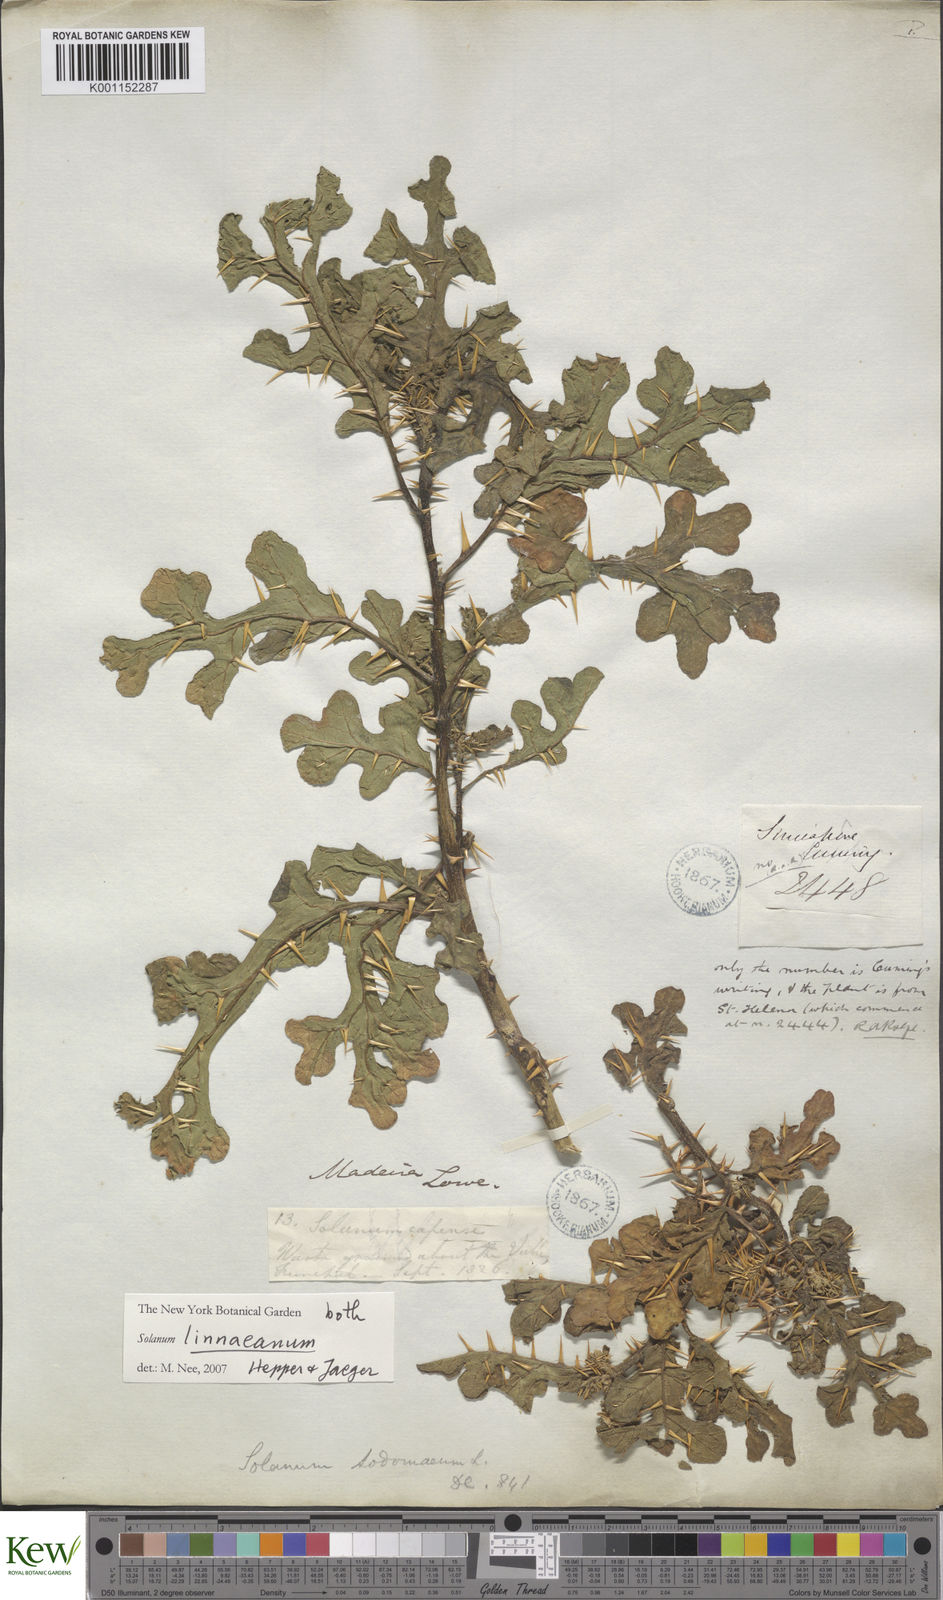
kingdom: Plantae
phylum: Tracheophyta
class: Magnoliopsida
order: Solanales
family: Solanaceae
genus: Solanum
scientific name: Solanum linnaeanum
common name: Nightshade
